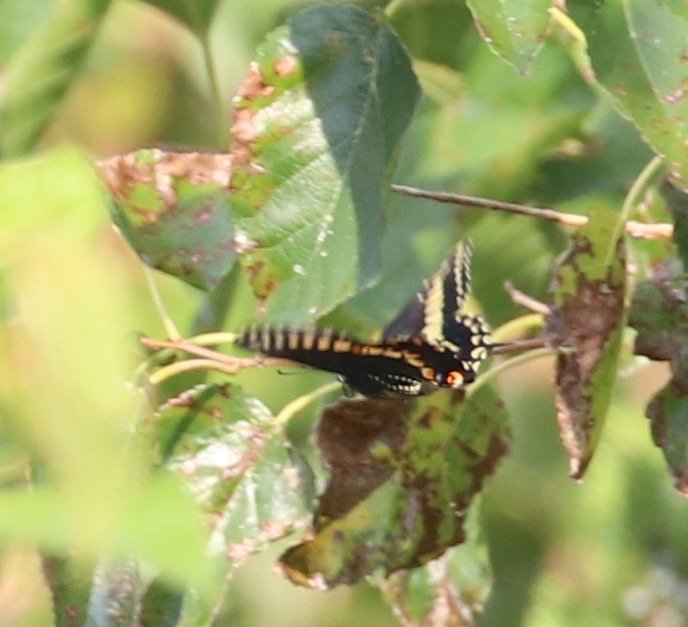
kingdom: Animalia
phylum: Arthropoda
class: Insecta
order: Lepidoptera
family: Papilionidae
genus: Papilio
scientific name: Papilio polyxenes
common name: Black Swallowtail
